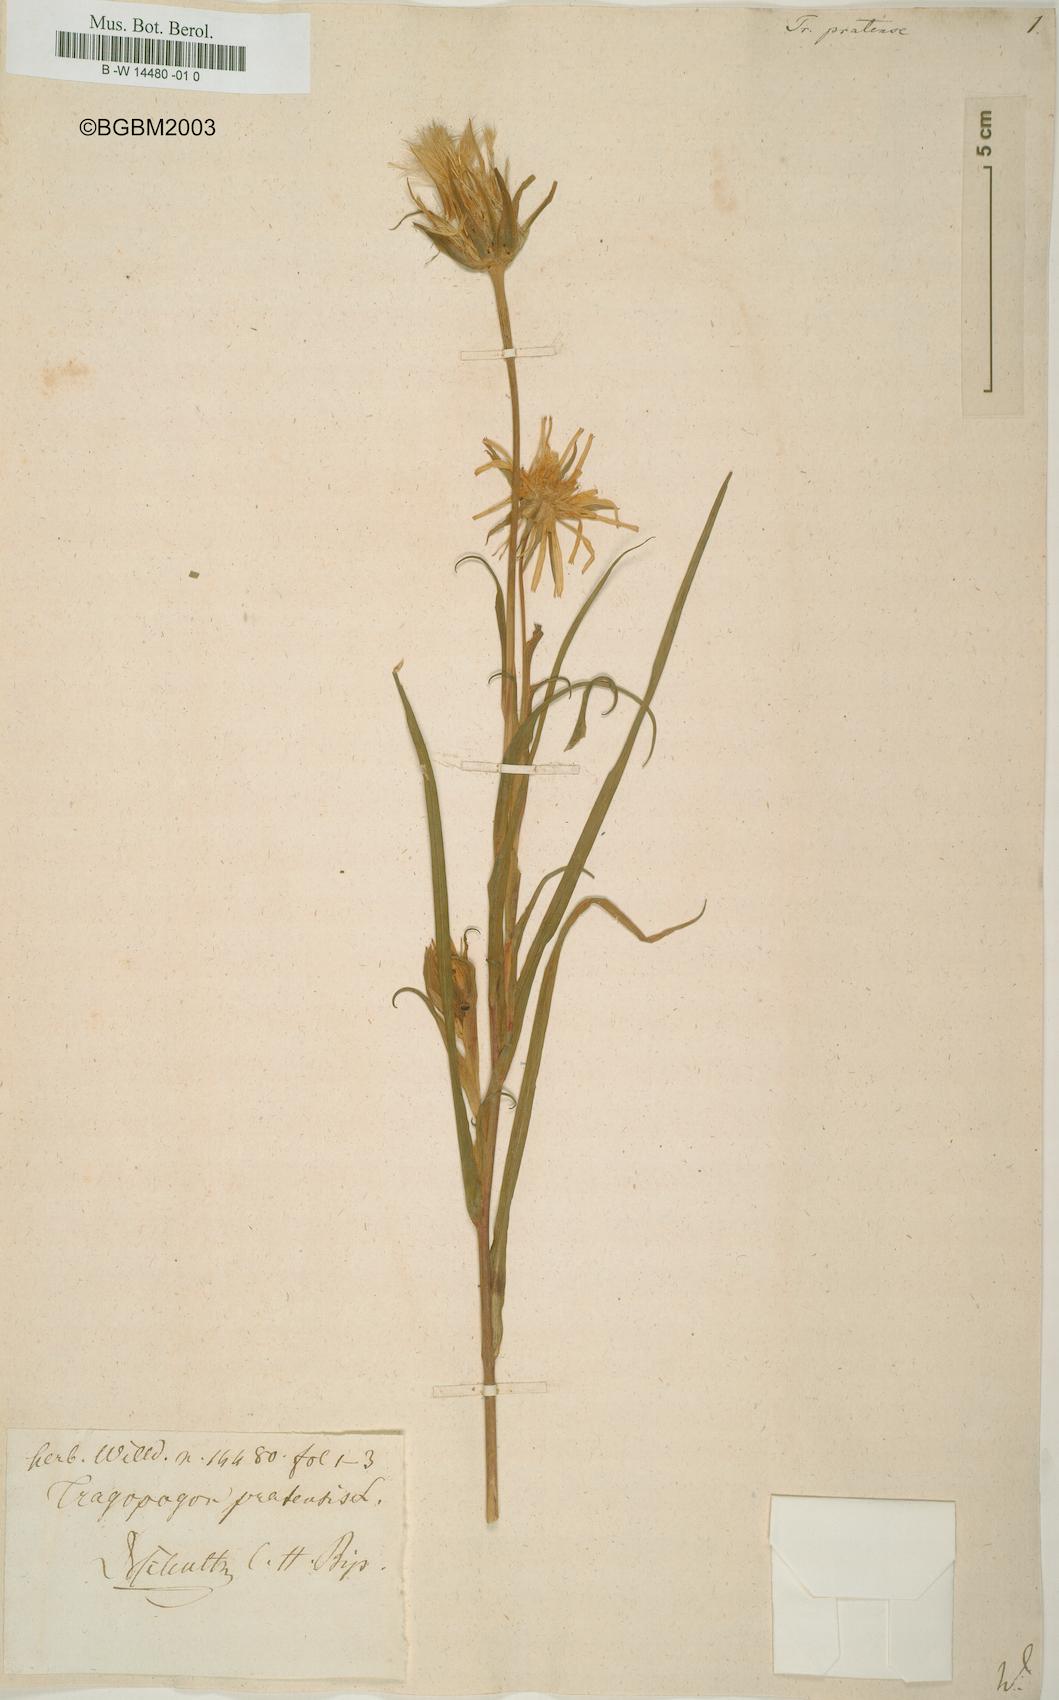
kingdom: Plantae
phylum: Tracheophyta
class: Magnoliopsida
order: Asterales
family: Asteraceae
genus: Tragopogon
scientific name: Tragopogon pratensis
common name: Goat's-beard
